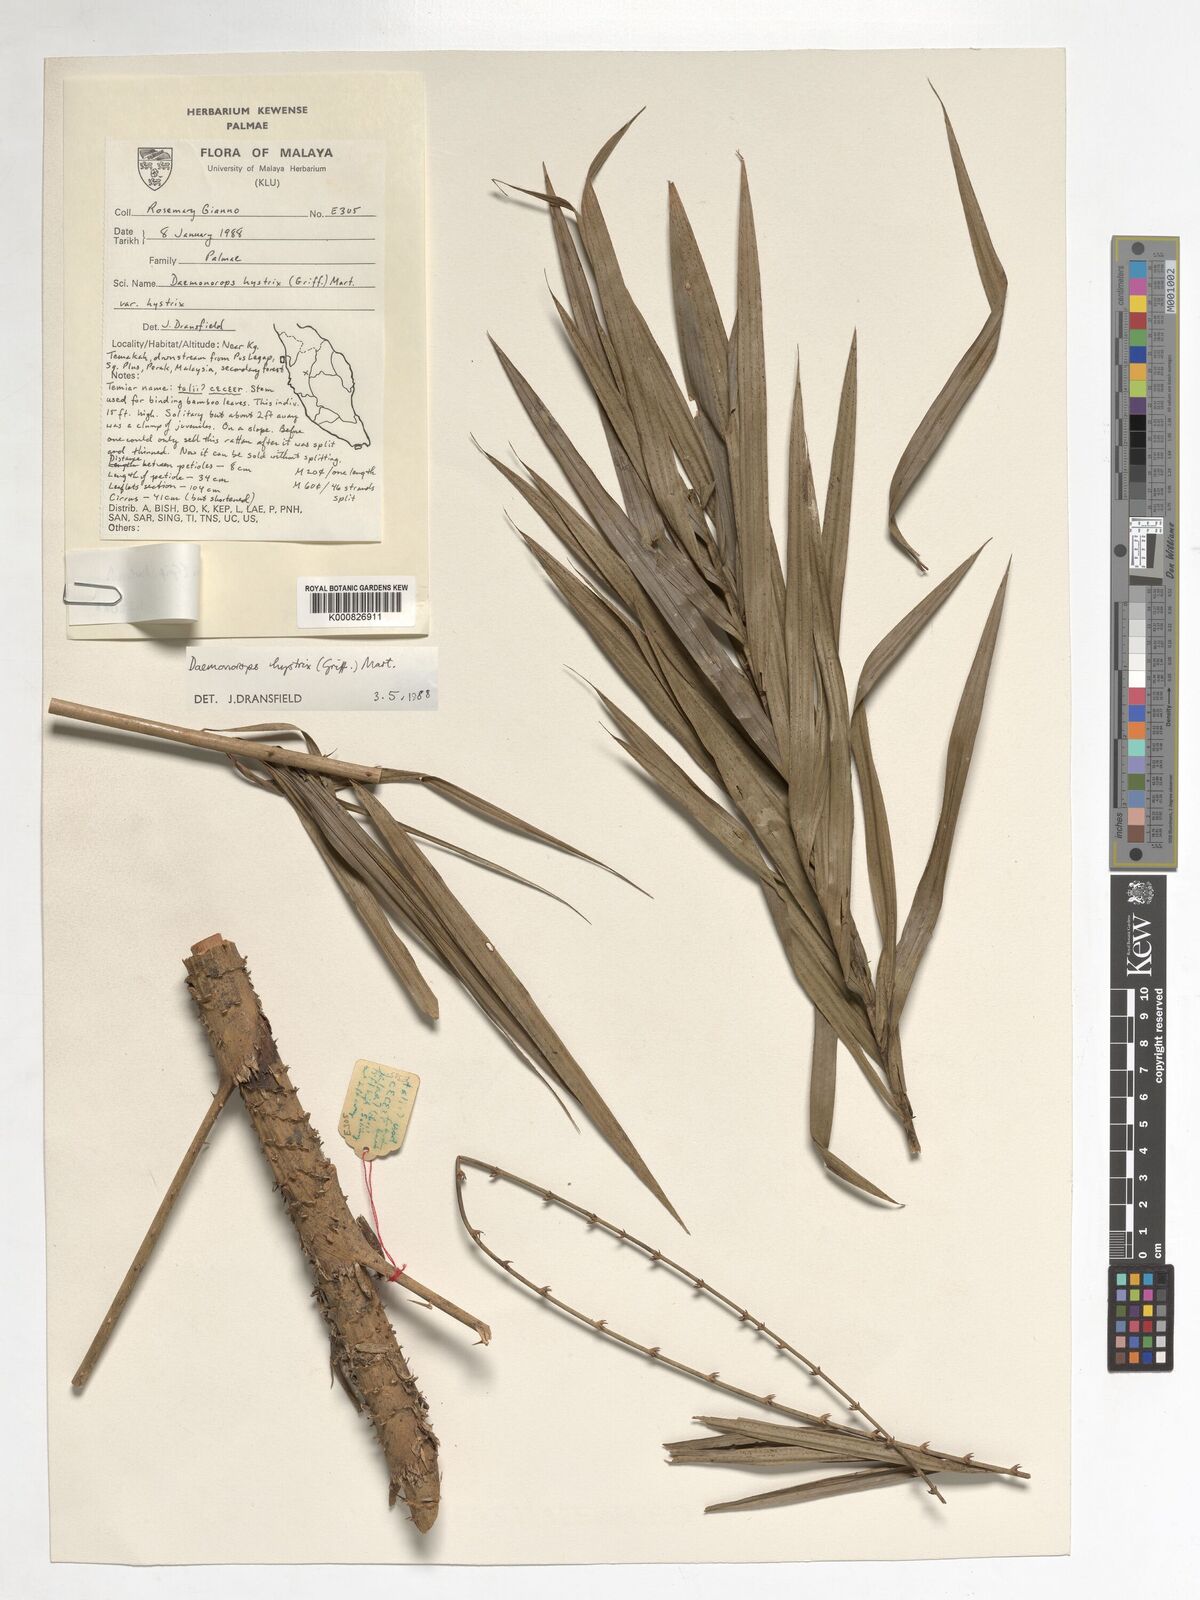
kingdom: Plantae
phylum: Tracheophyta
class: Liliopsida
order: Arecales
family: Arecaceae
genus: Calamus
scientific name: Calamus hirsutus
